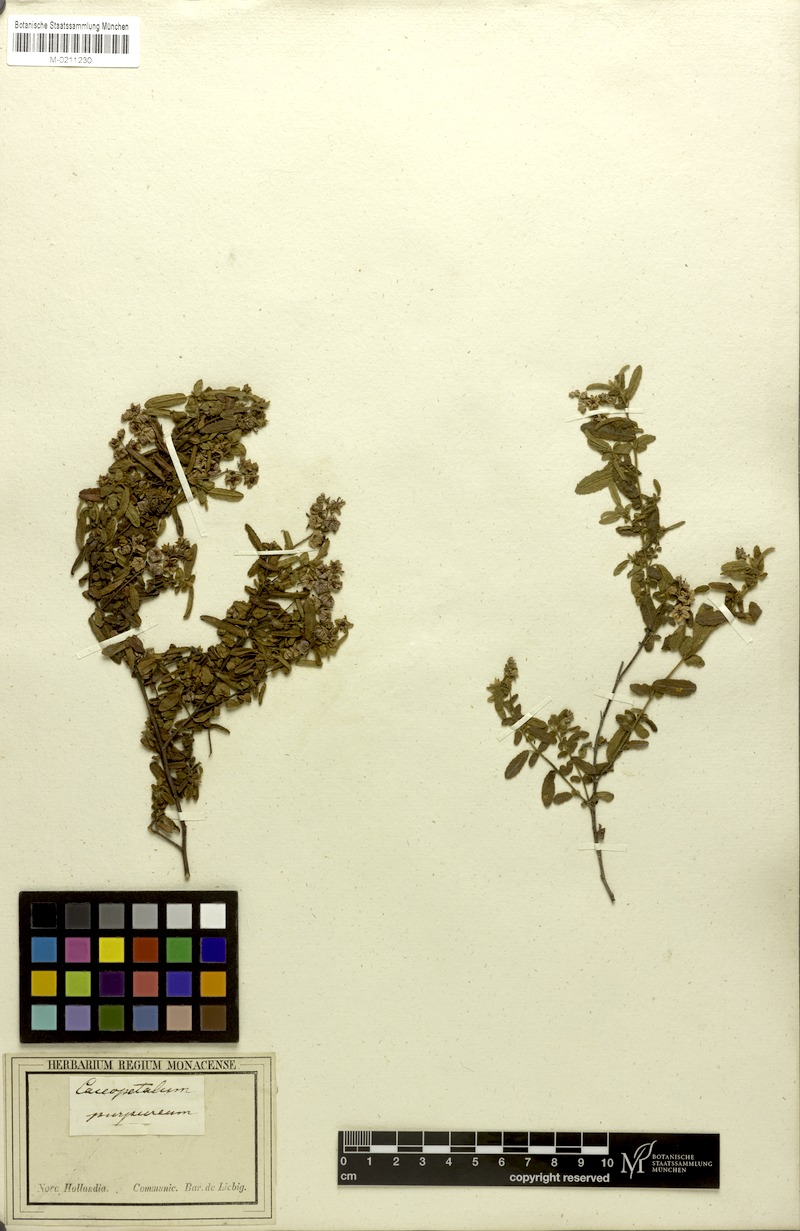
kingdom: Plantae
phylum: Tracheophyta
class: Magnoliopsida
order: Malvales
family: Malvaceae
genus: Thomasia
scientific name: Thomasia purpurea
